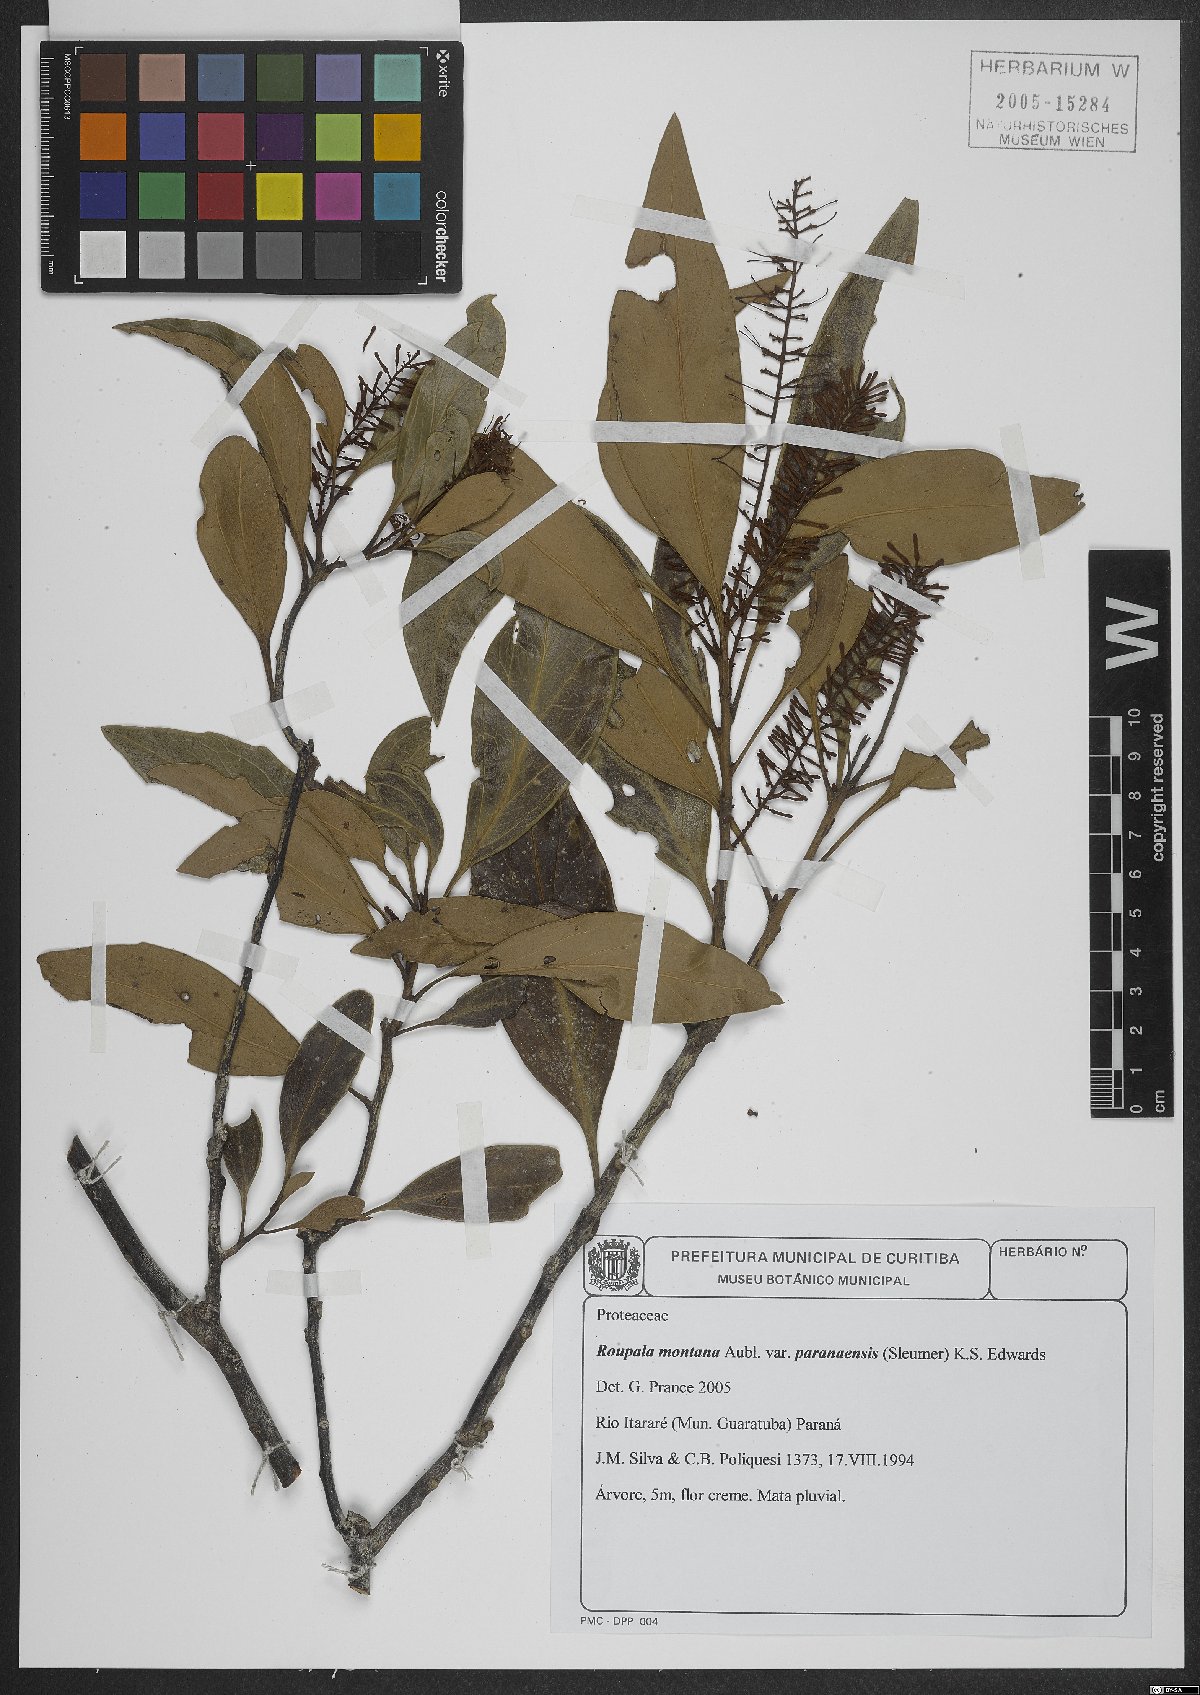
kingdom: Plantae
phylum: Tracheophyta
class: Magnoliopsida
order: Proteales
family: Proteaceae
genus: Roupala
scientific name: Roupala montana
